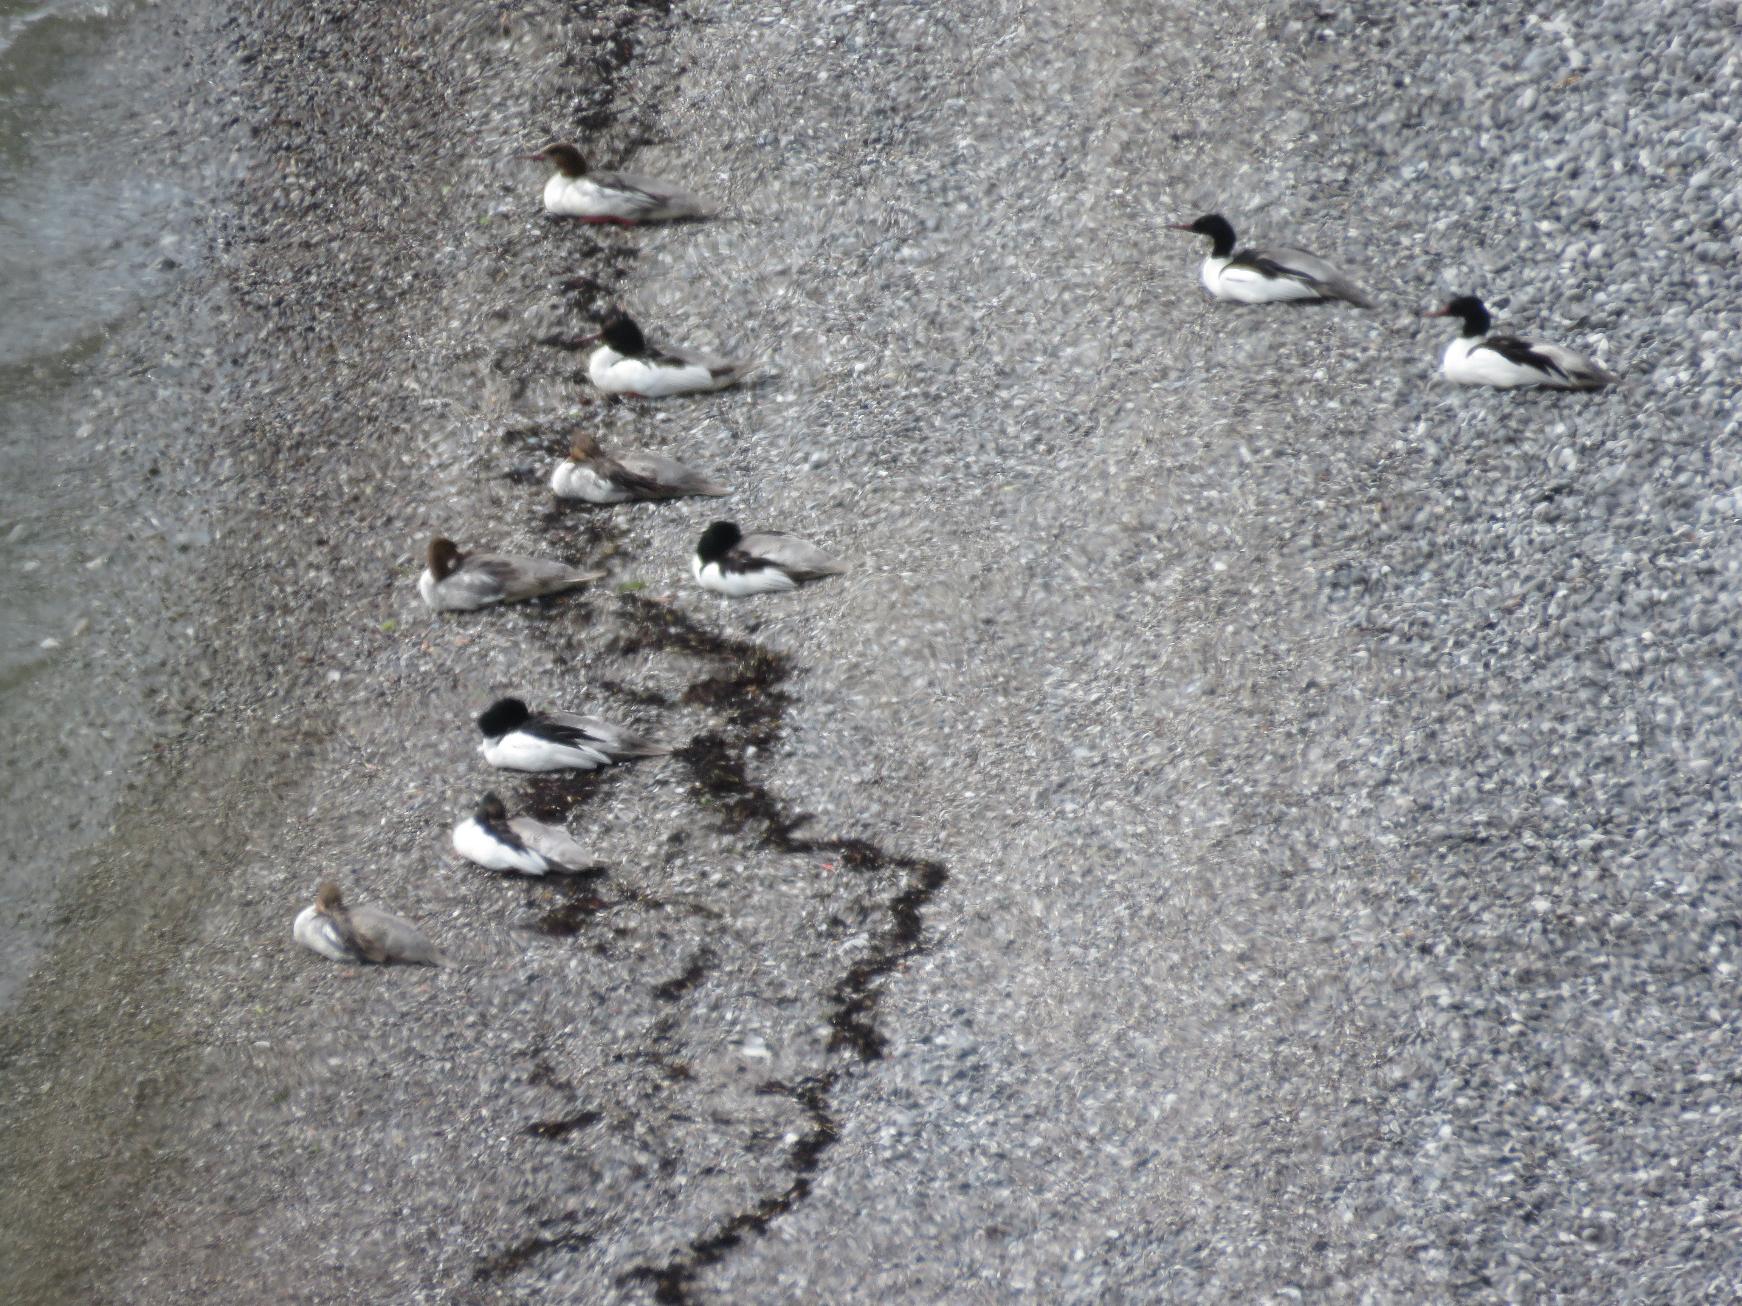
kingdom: Animalia
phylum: Chordata
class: Aves
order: Anseriformes
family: Anatidae
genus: Mergus
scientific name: Mergus merganser
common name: Stor skallesluger
